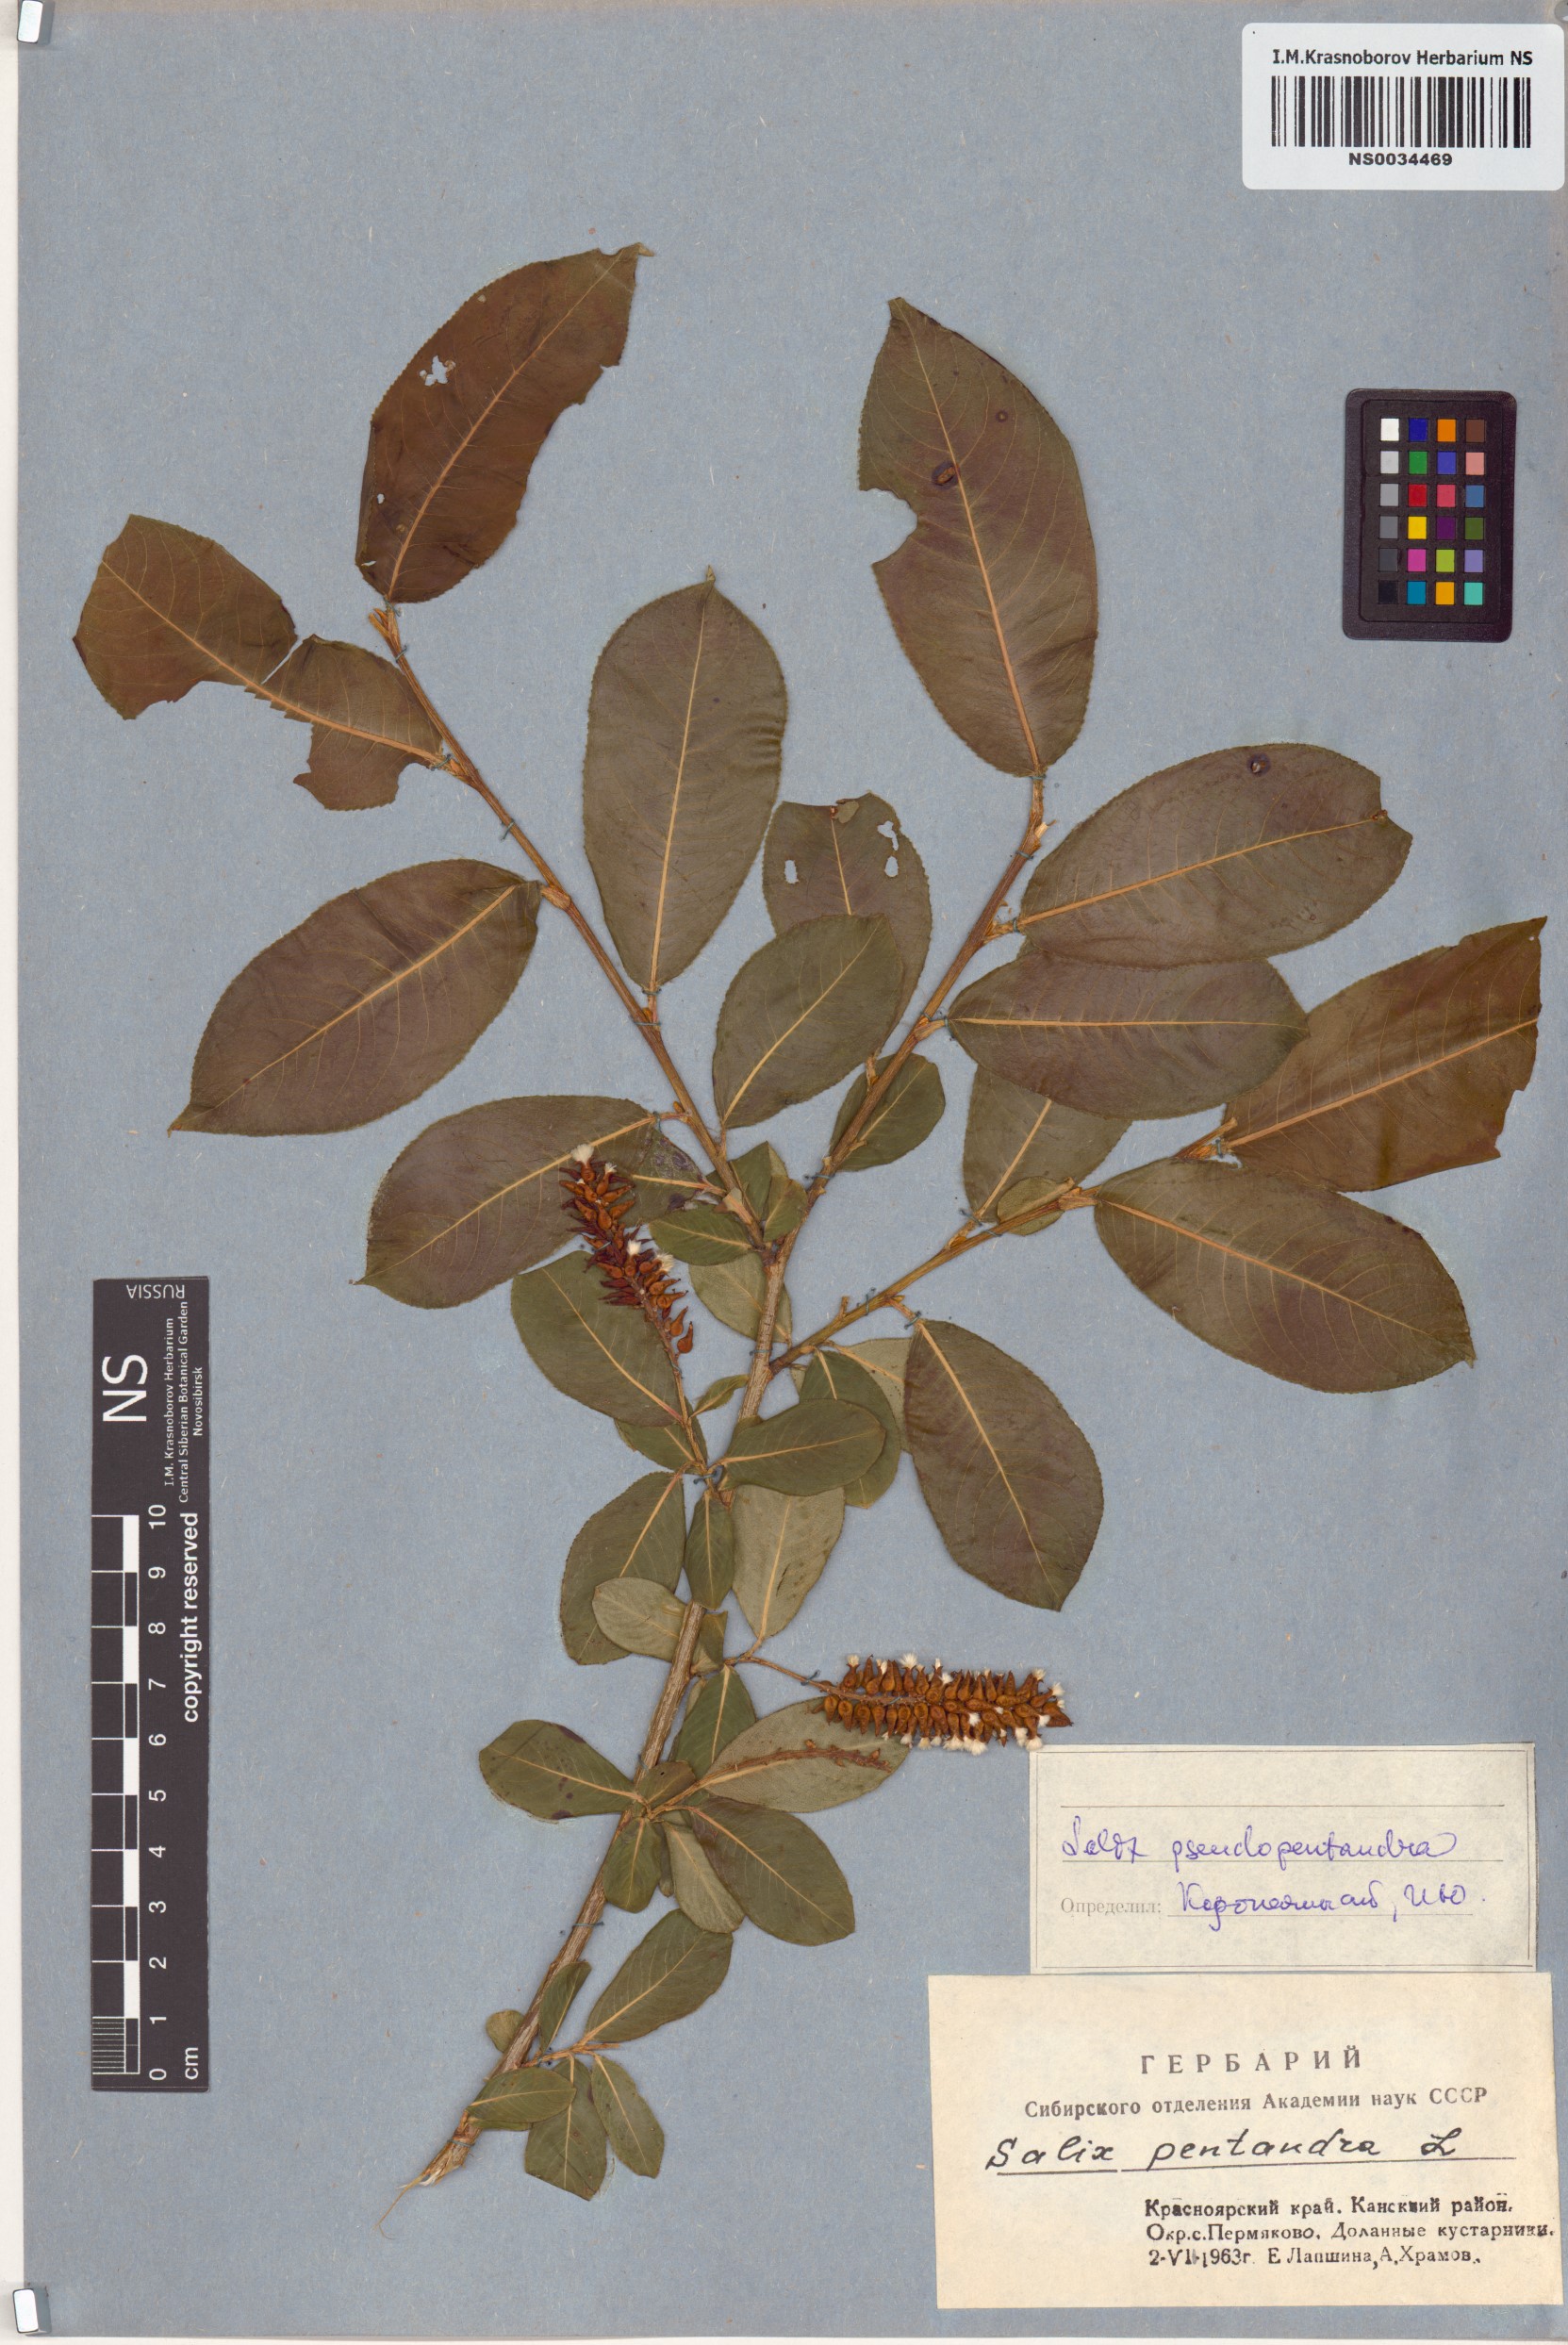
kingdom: Plantae
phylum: Tracheophyta
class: Magnoliopsida
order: Malpighiales
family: Salicaceae
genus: Salix
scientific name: Salix pseudopentandra
